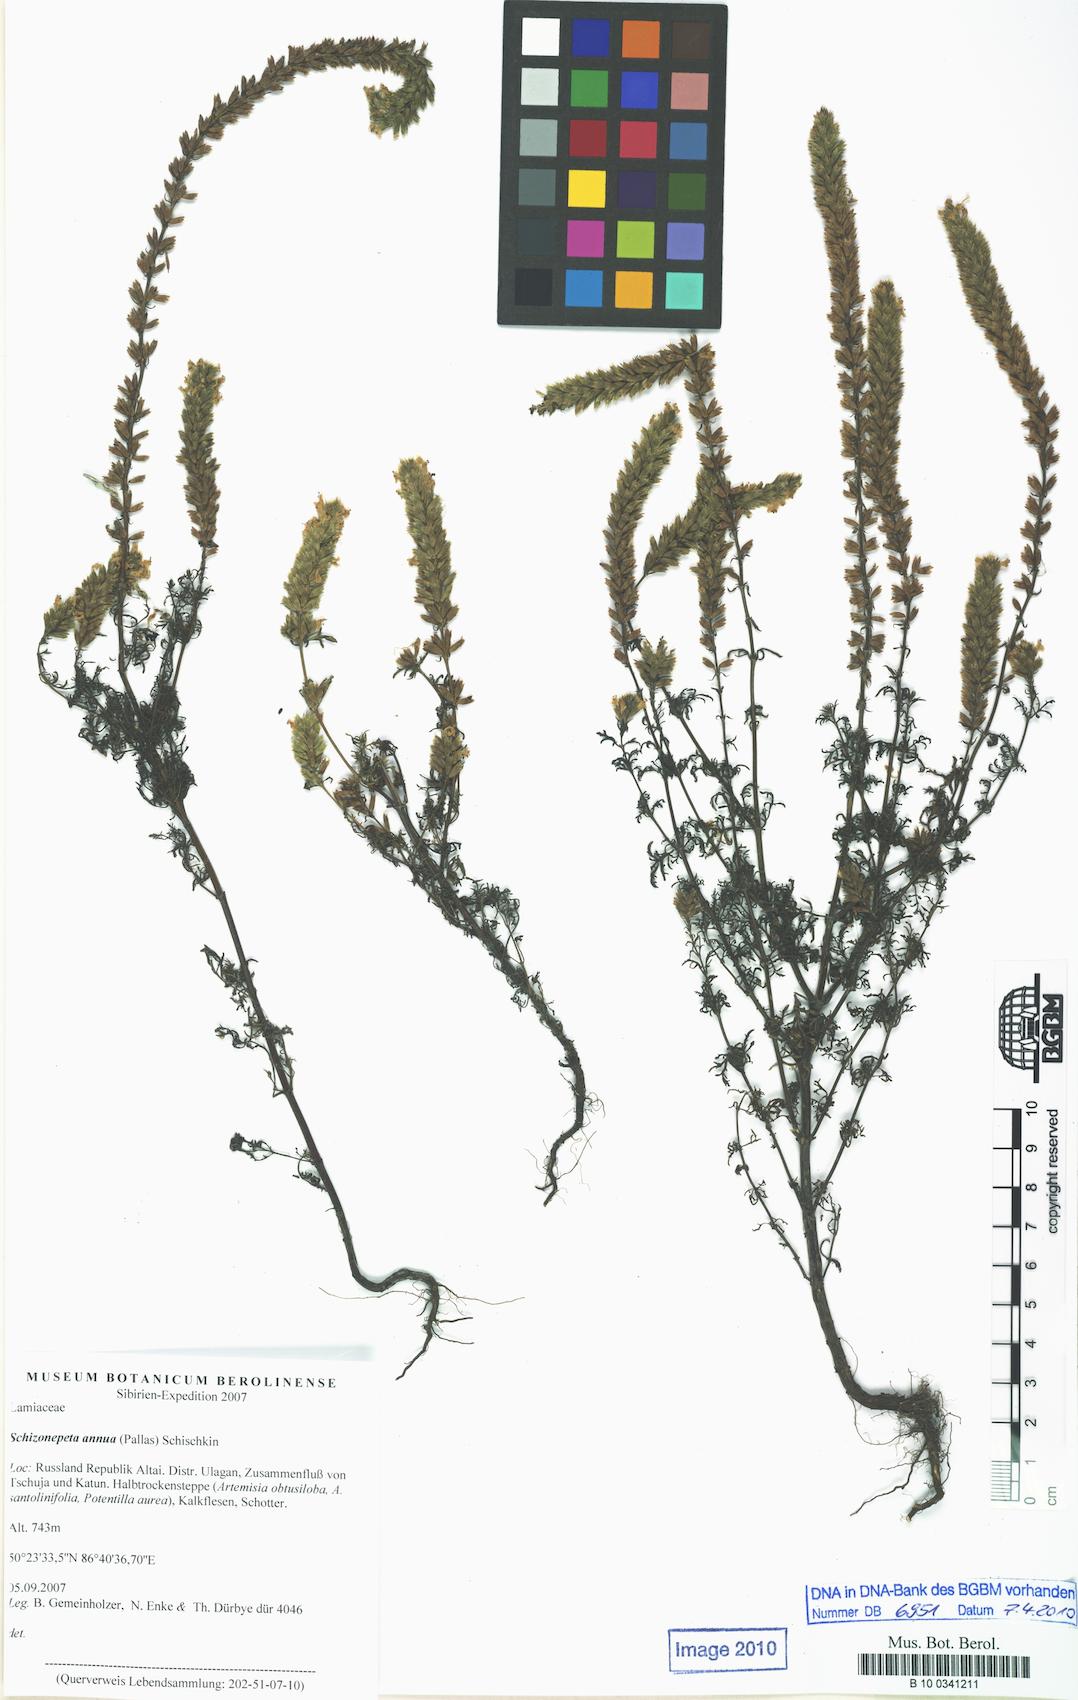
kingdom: Plantae
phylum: Tracheophyta
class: Magnoliopsida
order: Lamiales
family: Lamiaceae
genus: Nepeta
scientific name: Nepeta annua
